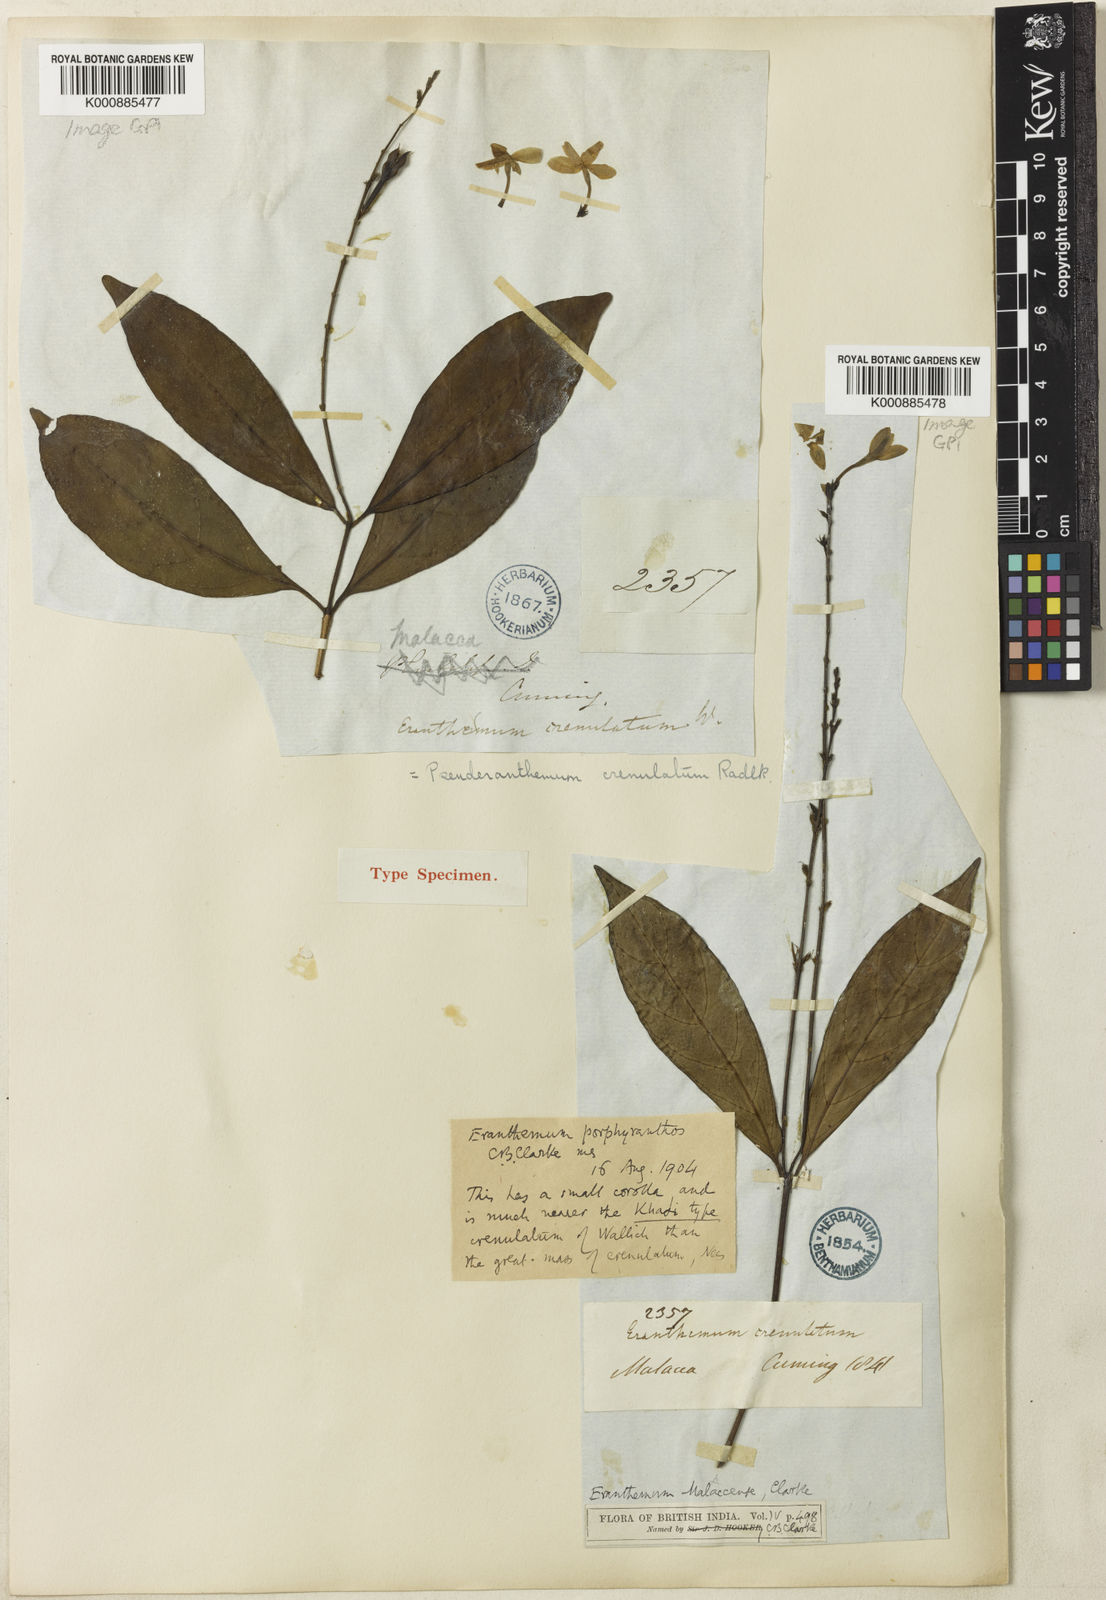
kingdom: Plantae
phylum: Tracheophyta
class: Magnoliopsida
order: Lamiales
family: Acanthaceae
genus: Pseuderanthemum
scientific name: Pseuderanthemum
